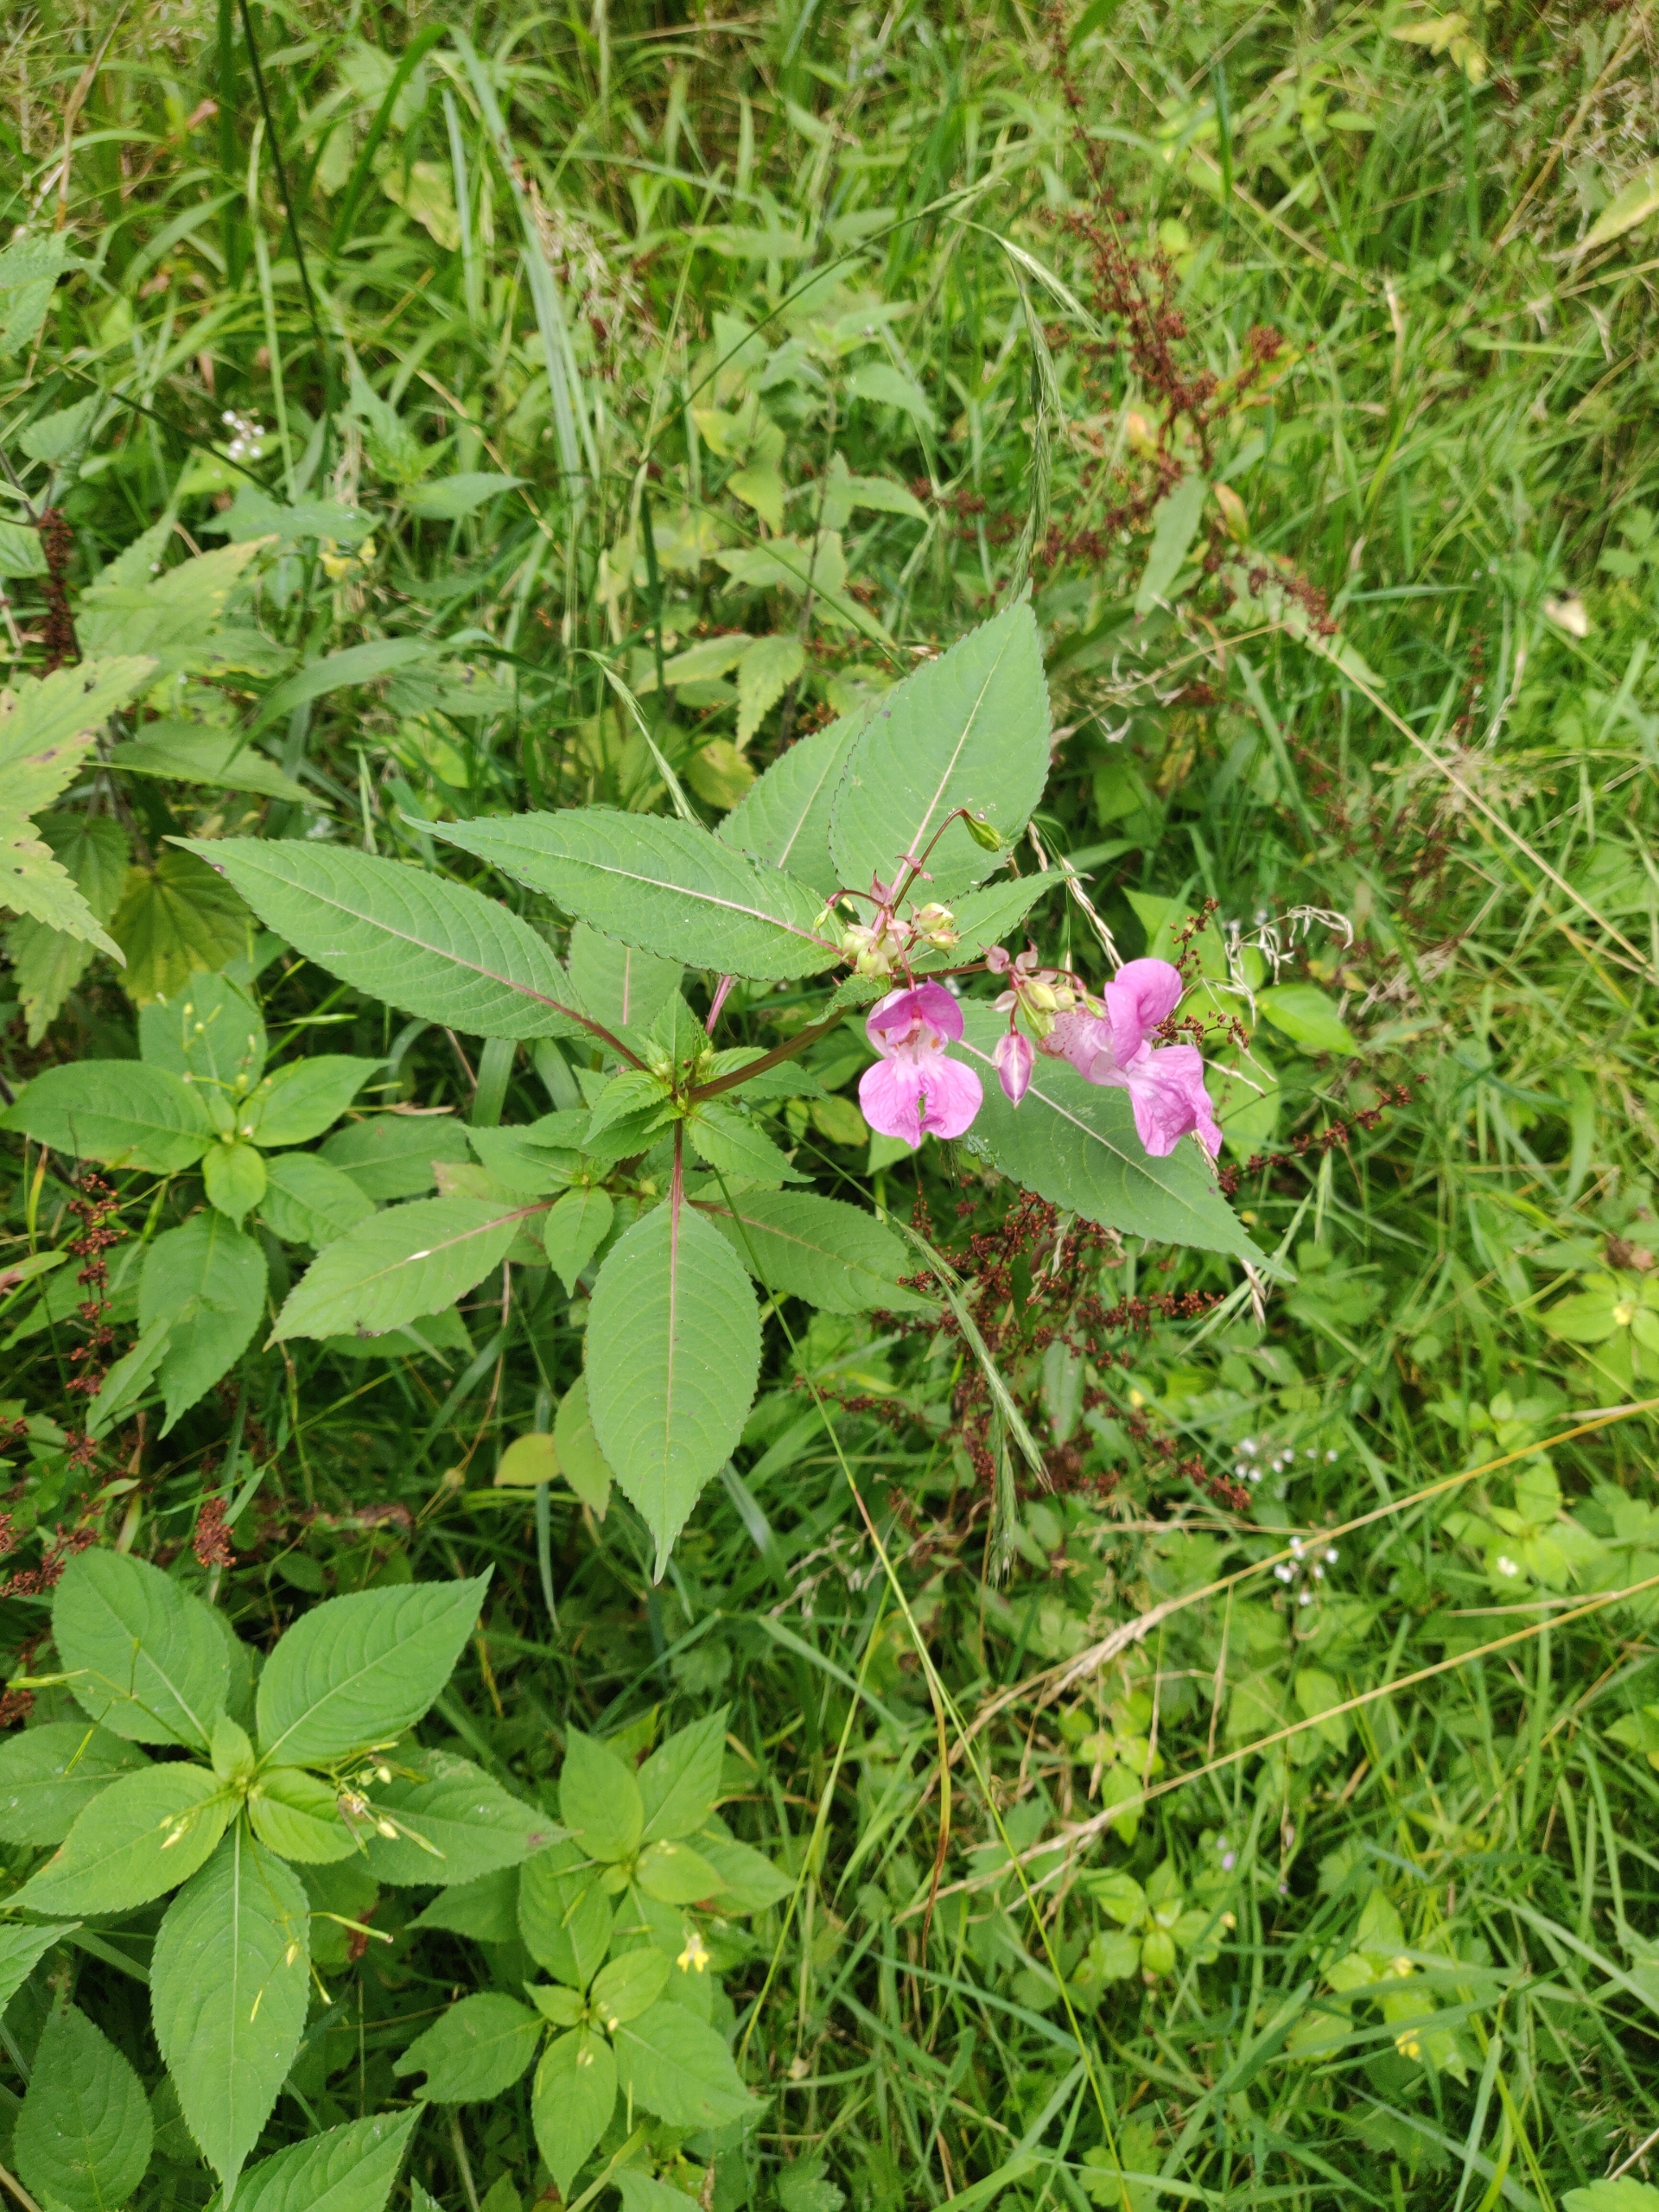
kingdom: Plantae
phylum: Tracheophyta
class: Magnoliopsida
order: Ericales
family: Balsaminaceae
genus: Impatiens
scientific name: Impatiens glandulifera
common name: Kæmpe-balsamin
